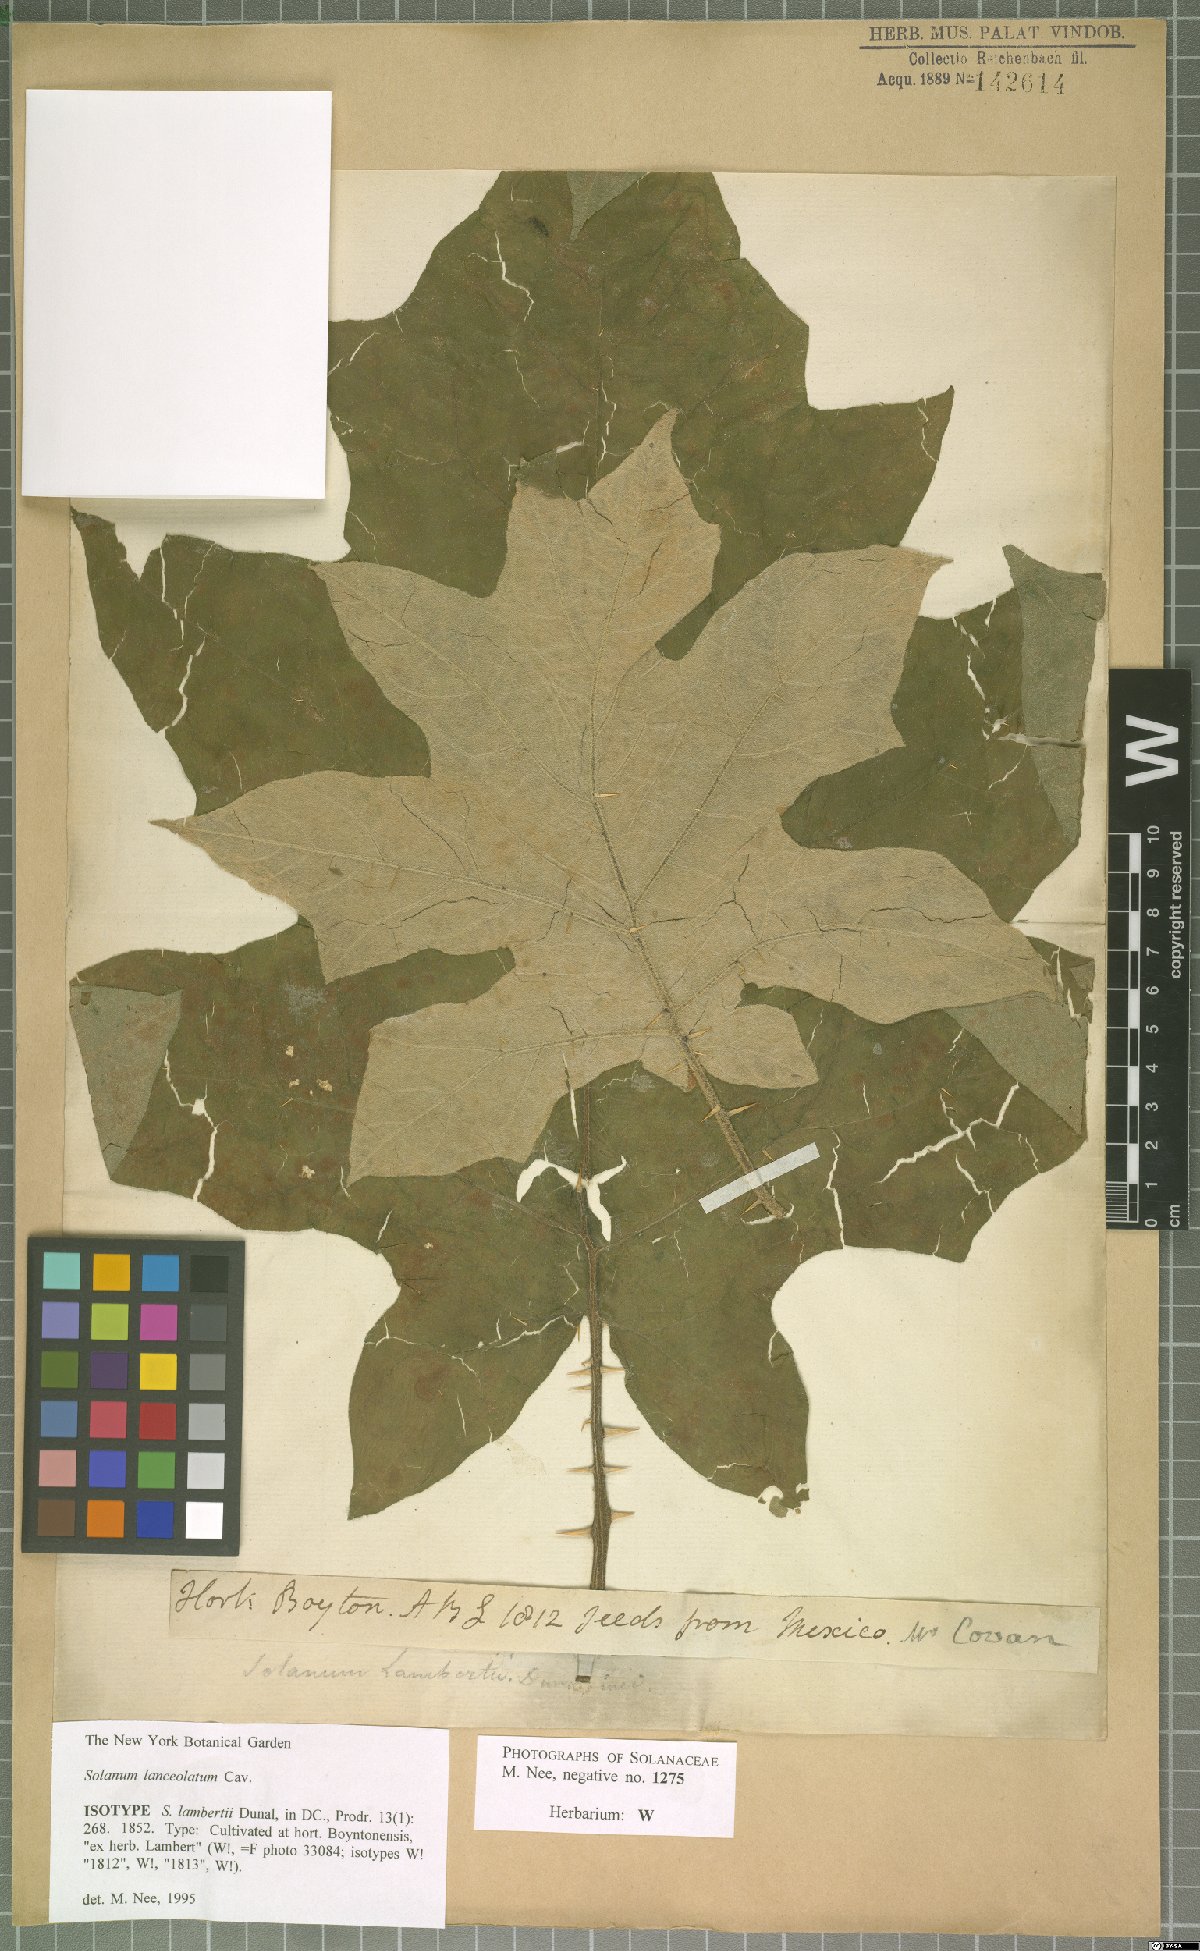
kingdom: Plantae
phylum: Tracheophyta
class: Magnoliopsida
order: Solanales
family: Solanaceae
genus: Solanum
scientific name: Solanum lanceolatum
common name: Orangeberry nightshade
